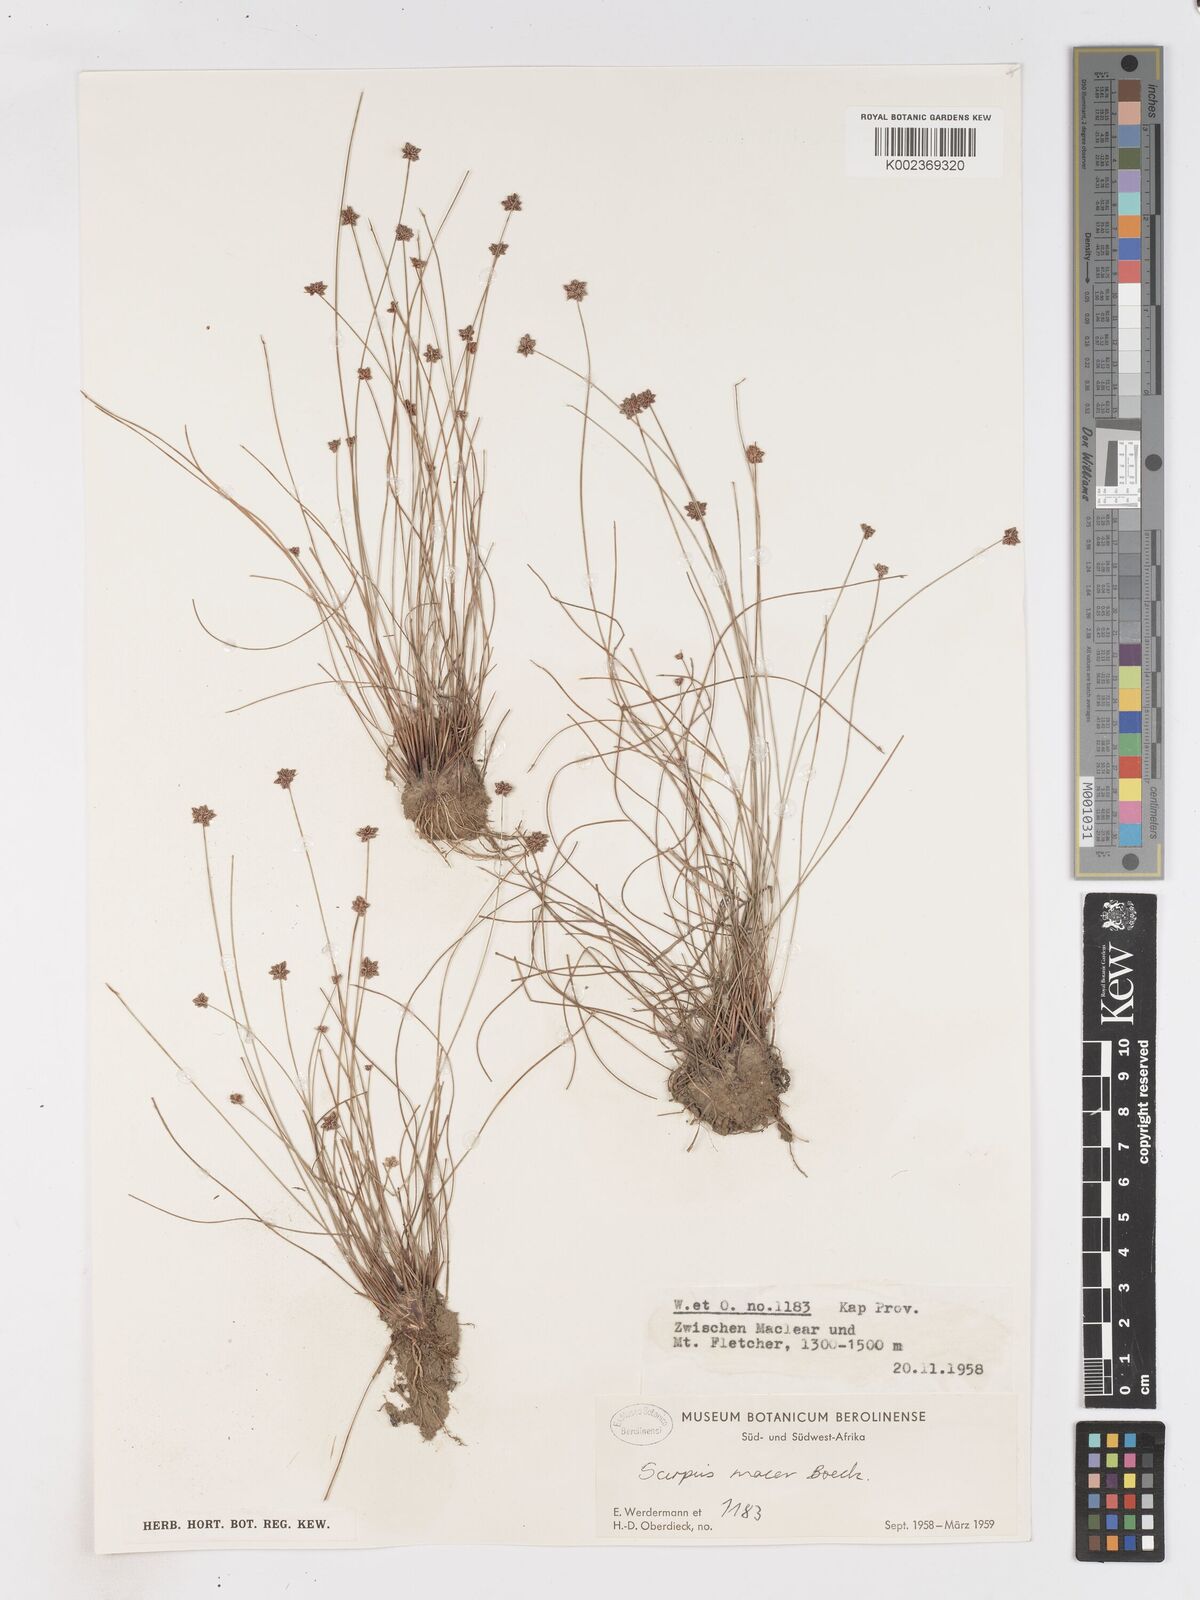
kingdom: Plantae
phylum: Tracheophyta
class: Liliopsida
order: Poales
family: Cyperaceae
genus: Isolepis
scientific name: Isolepis costata
